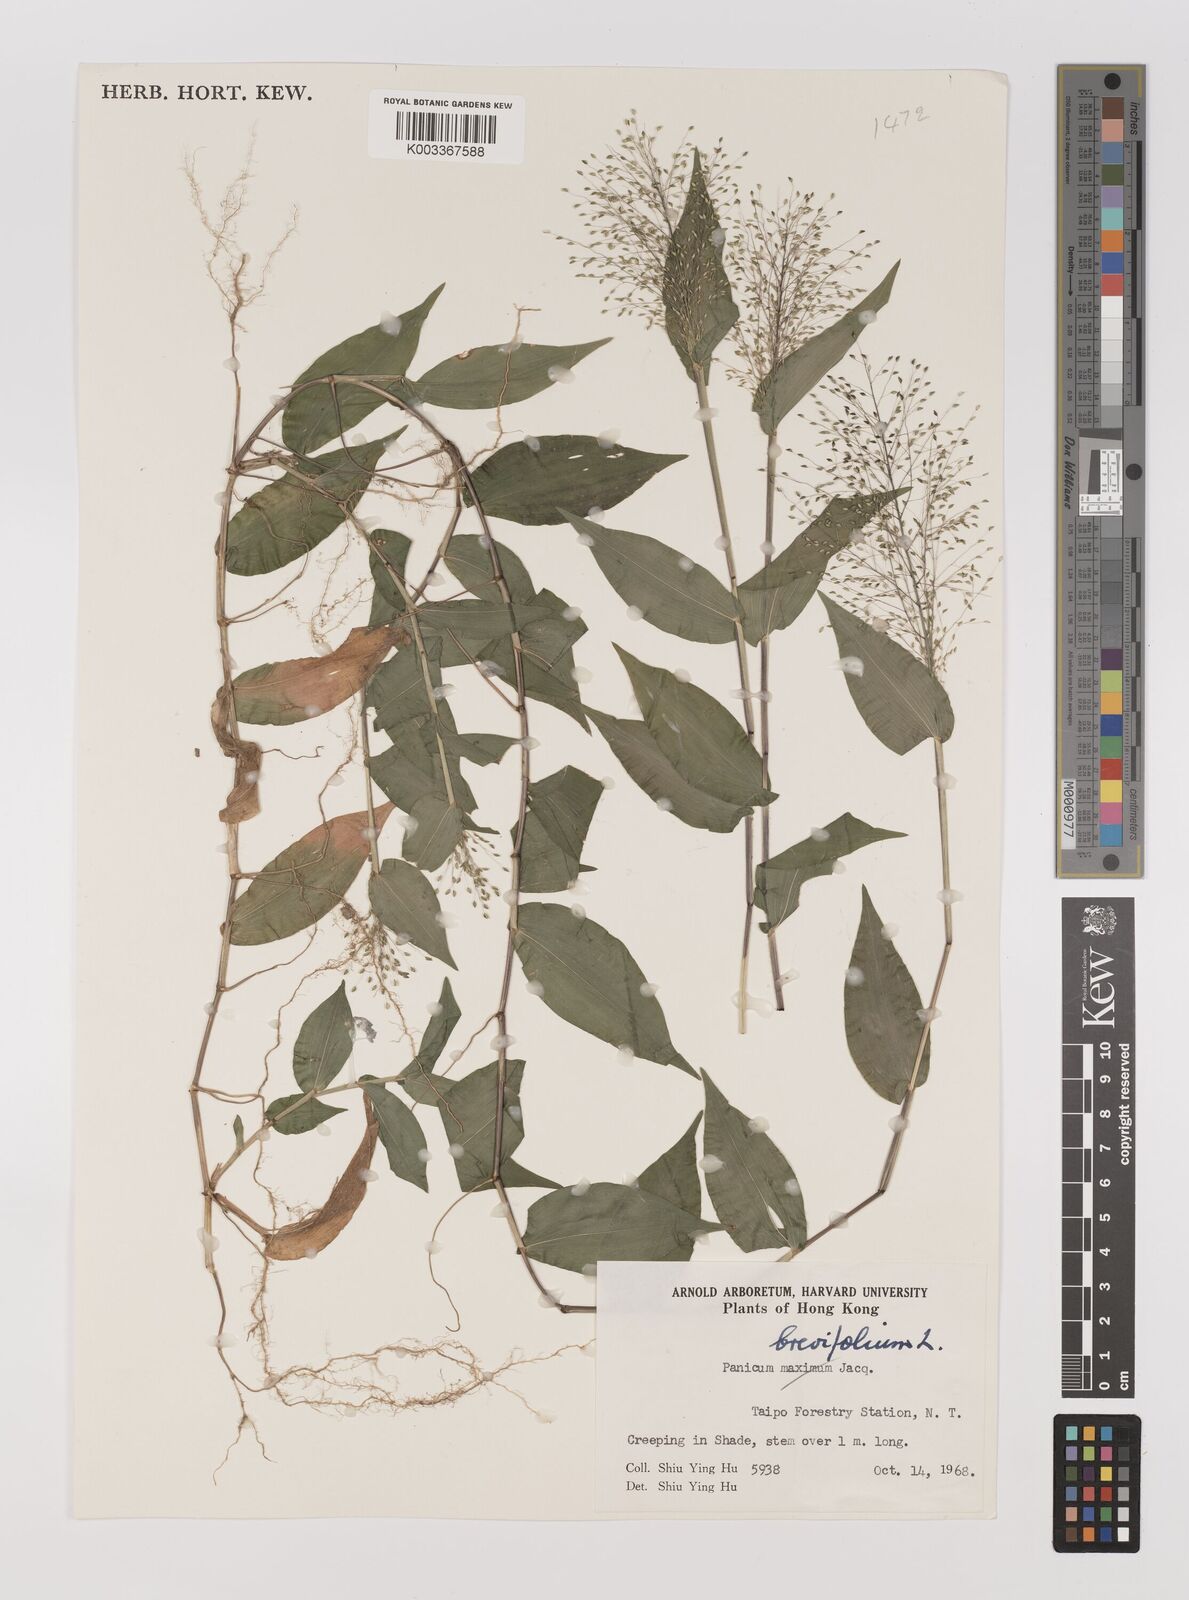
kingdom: Plantae
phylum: Tracheophyta
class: Liliopsida
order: Poales
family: Poaceae
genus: Panicum
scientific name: Panicum brevifolium
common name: Shortleaf panic grass
